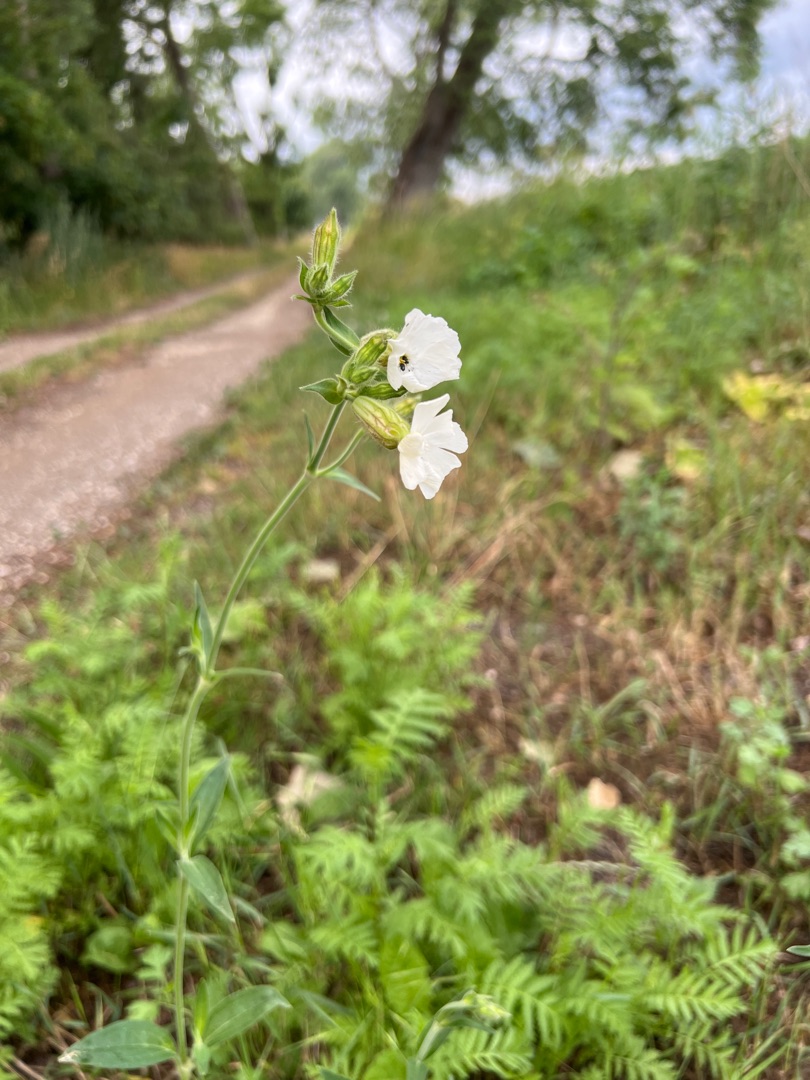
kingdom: Plantae
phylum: Tracheophyta
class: Magnoliopsida
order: Caryophyllales
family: Caryophyllaceae
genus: Silene
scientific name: Silene latifolia
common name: Aftenpragtstjerne
